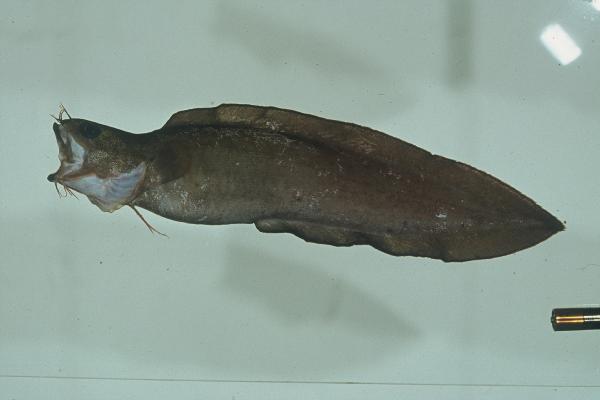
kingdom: Animalia
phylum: Chordata
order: Ophidiiformes
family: Ophidiidae
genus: Brotula
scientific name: Brotula multibarbata
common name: Goatsbeard brotula
